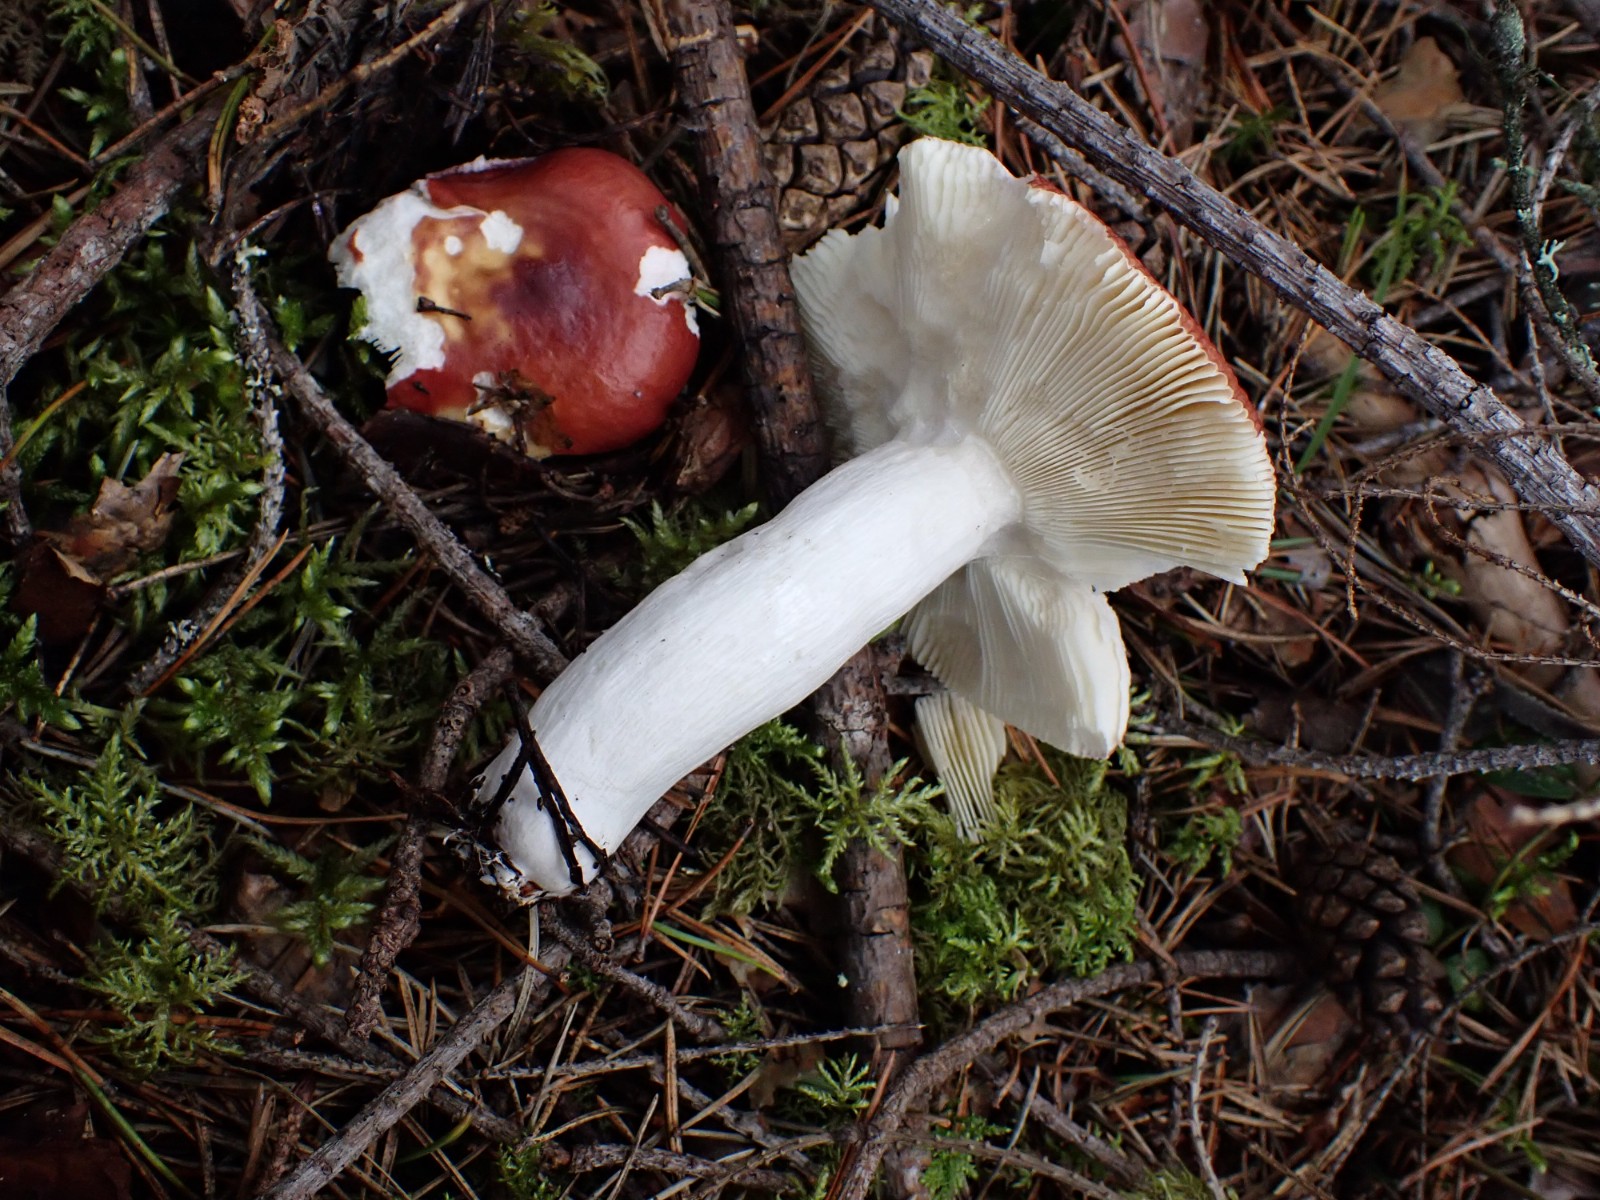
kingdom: Fungi
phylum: Basidiomycota
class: Agaricomycetes
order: Russulales
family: Russulaceae
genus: Russula
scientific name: Russula
